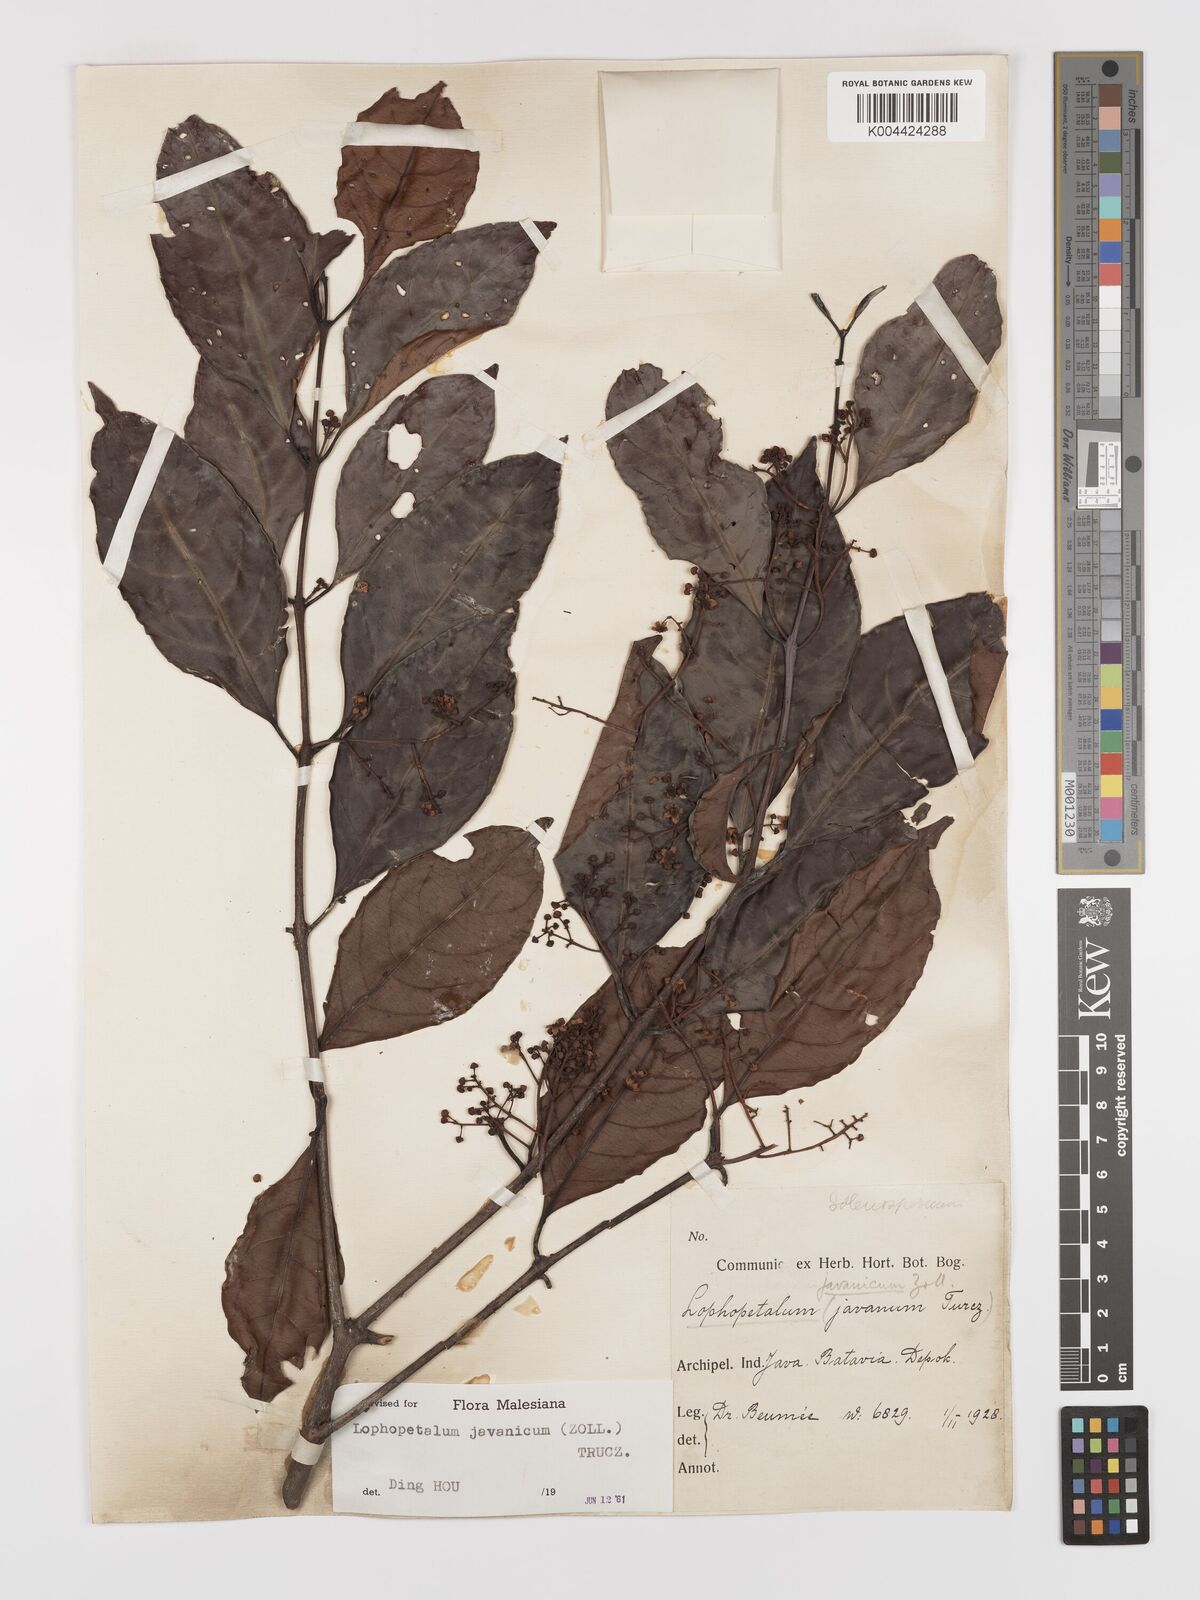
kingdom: Plantae
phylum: Tracheophyta
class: Magnoliopsida
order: Celastrales
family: Celastraceae
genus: Lophopetalum
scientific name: Lophopetalum javanicum
